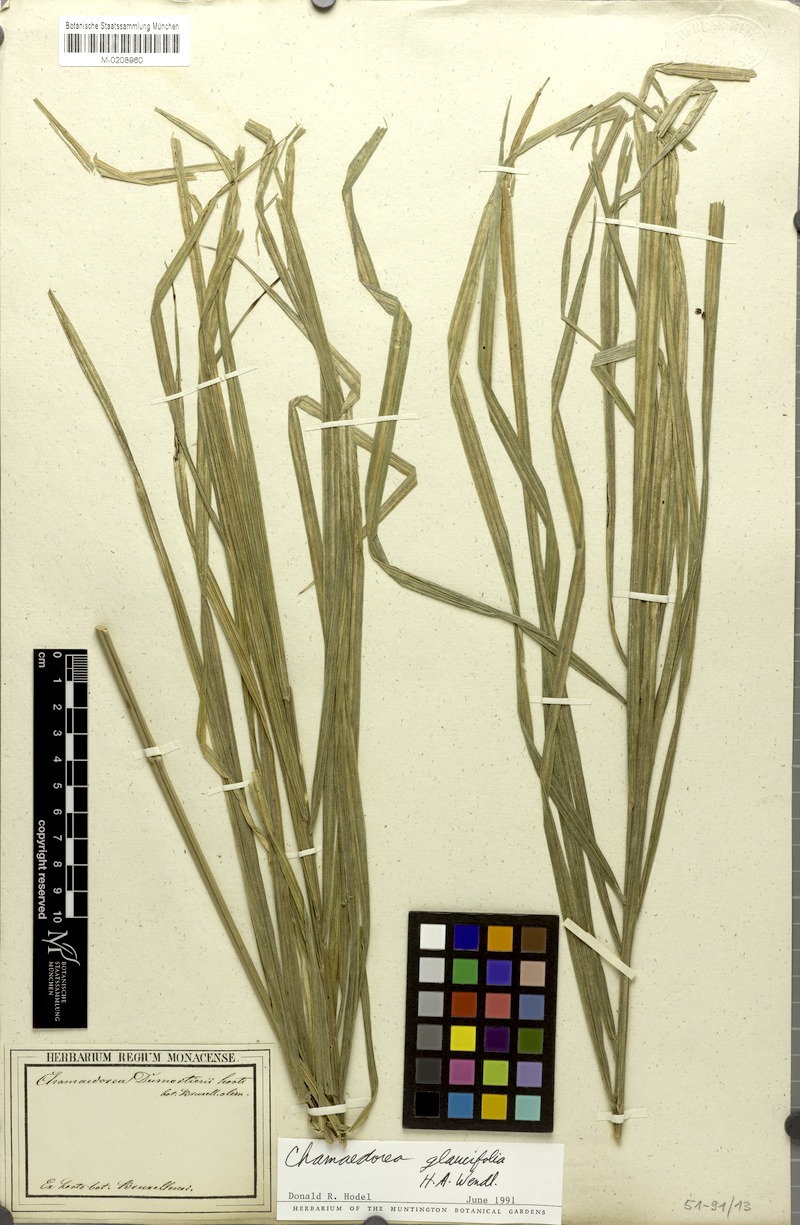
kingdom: Plantae
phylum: Tracheophyta
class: Liliopsida
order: Arecales
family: Arecaceae
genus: Chamaedorea
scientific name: Chamaedorea glaucifolia
